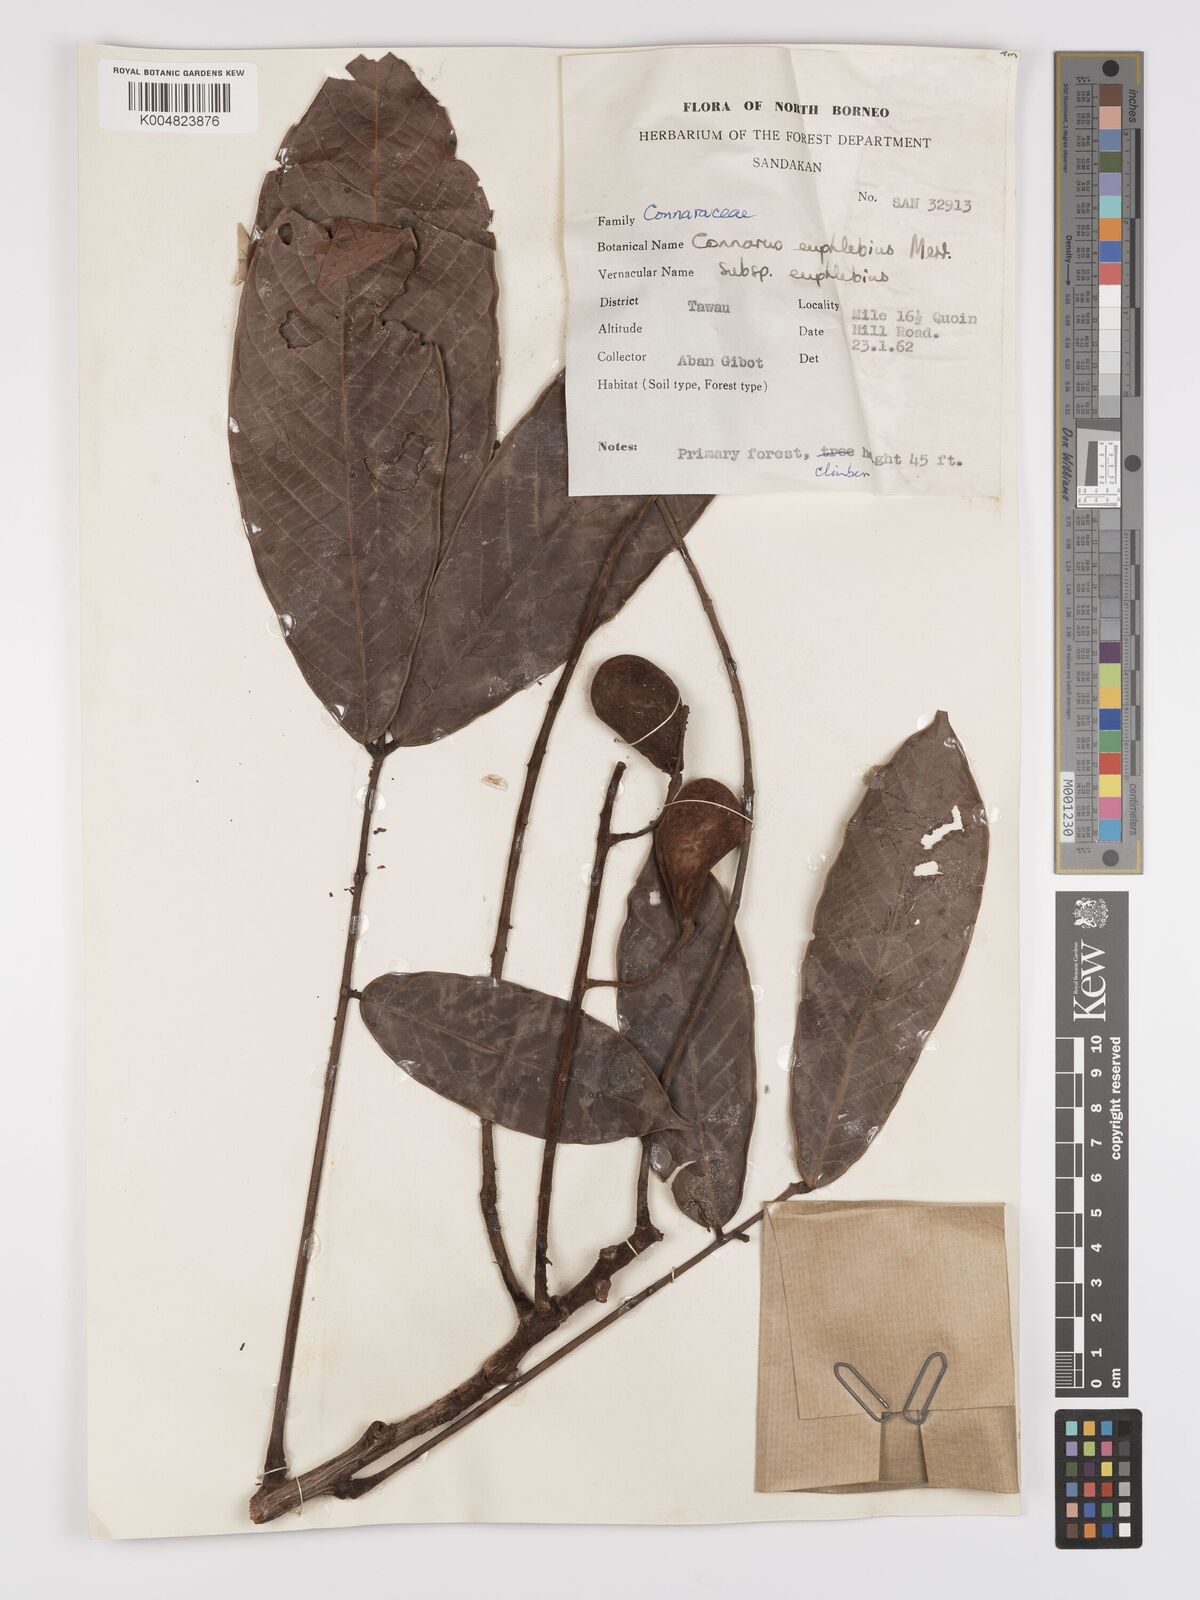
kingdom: Plantae
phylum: Tracheophyta
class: Magnoliopsida
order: Oxalidales
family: Connaraceae
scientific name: Connaraceae
